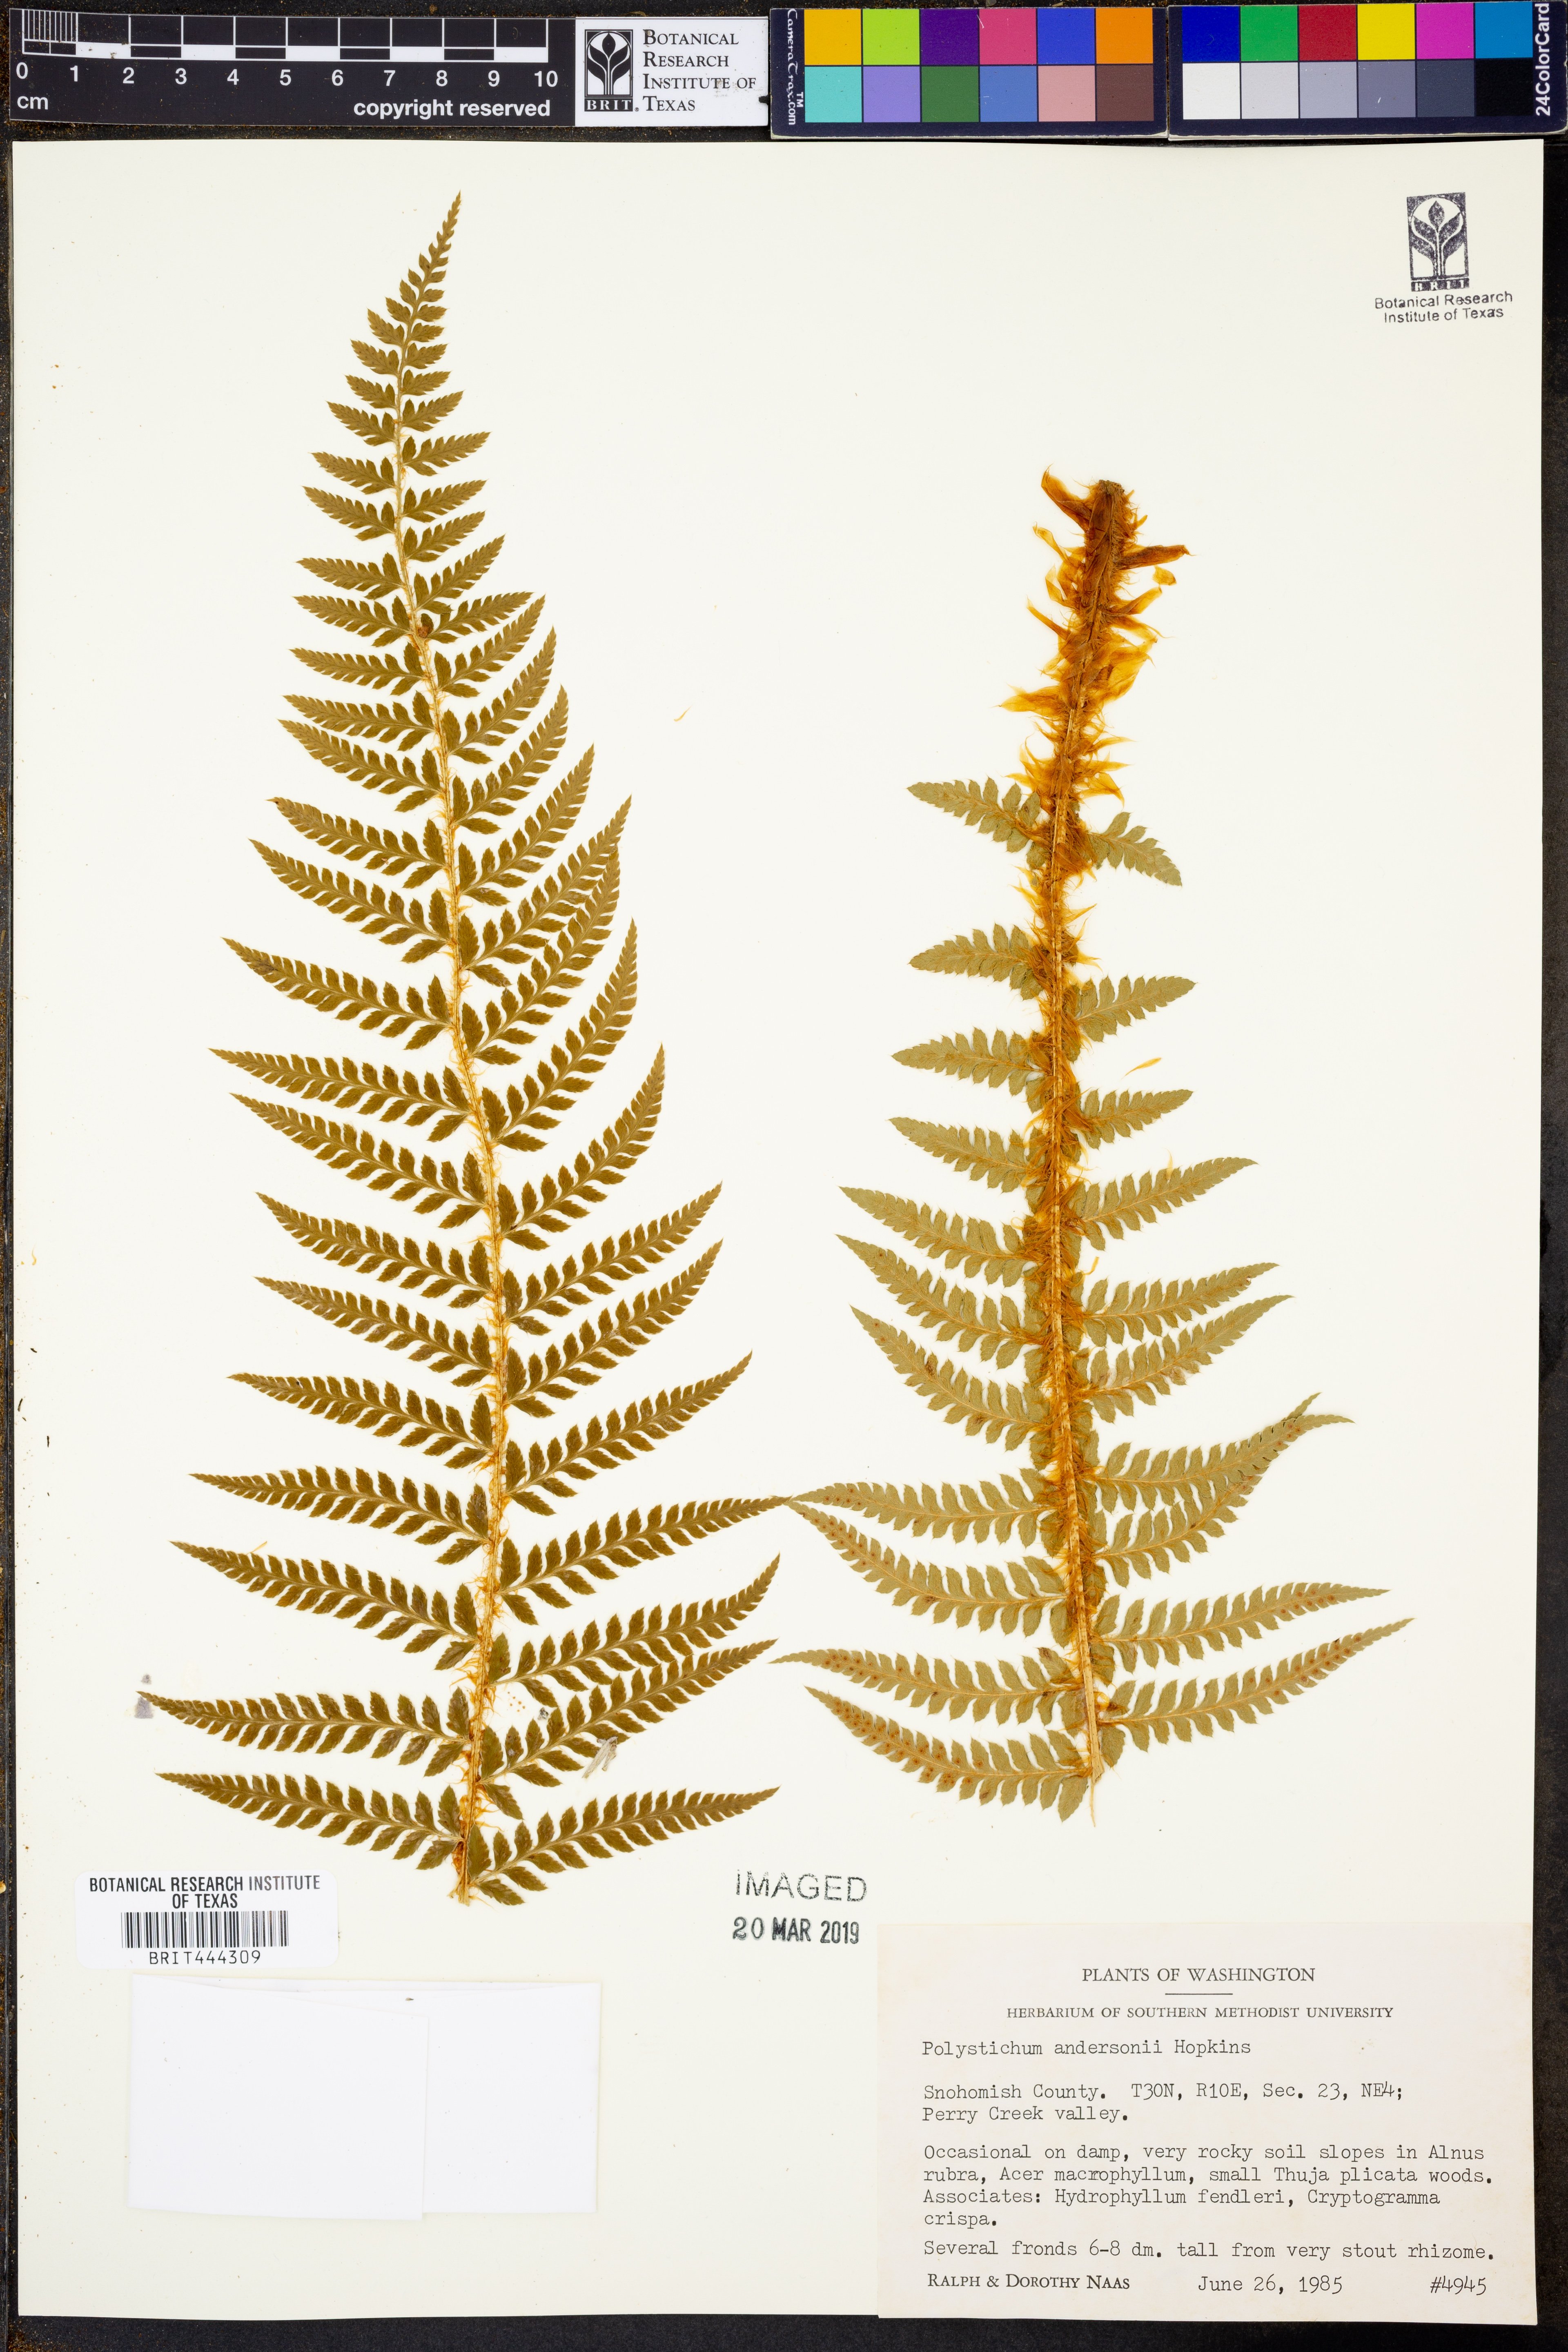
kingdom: Plantae
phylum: Tracheophyta
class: Polypodiopsida
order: Polypodiales
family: Dryopteridaceae
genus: Polystichum
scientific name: Polystichum andersonii
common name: Anderson's holly fern
